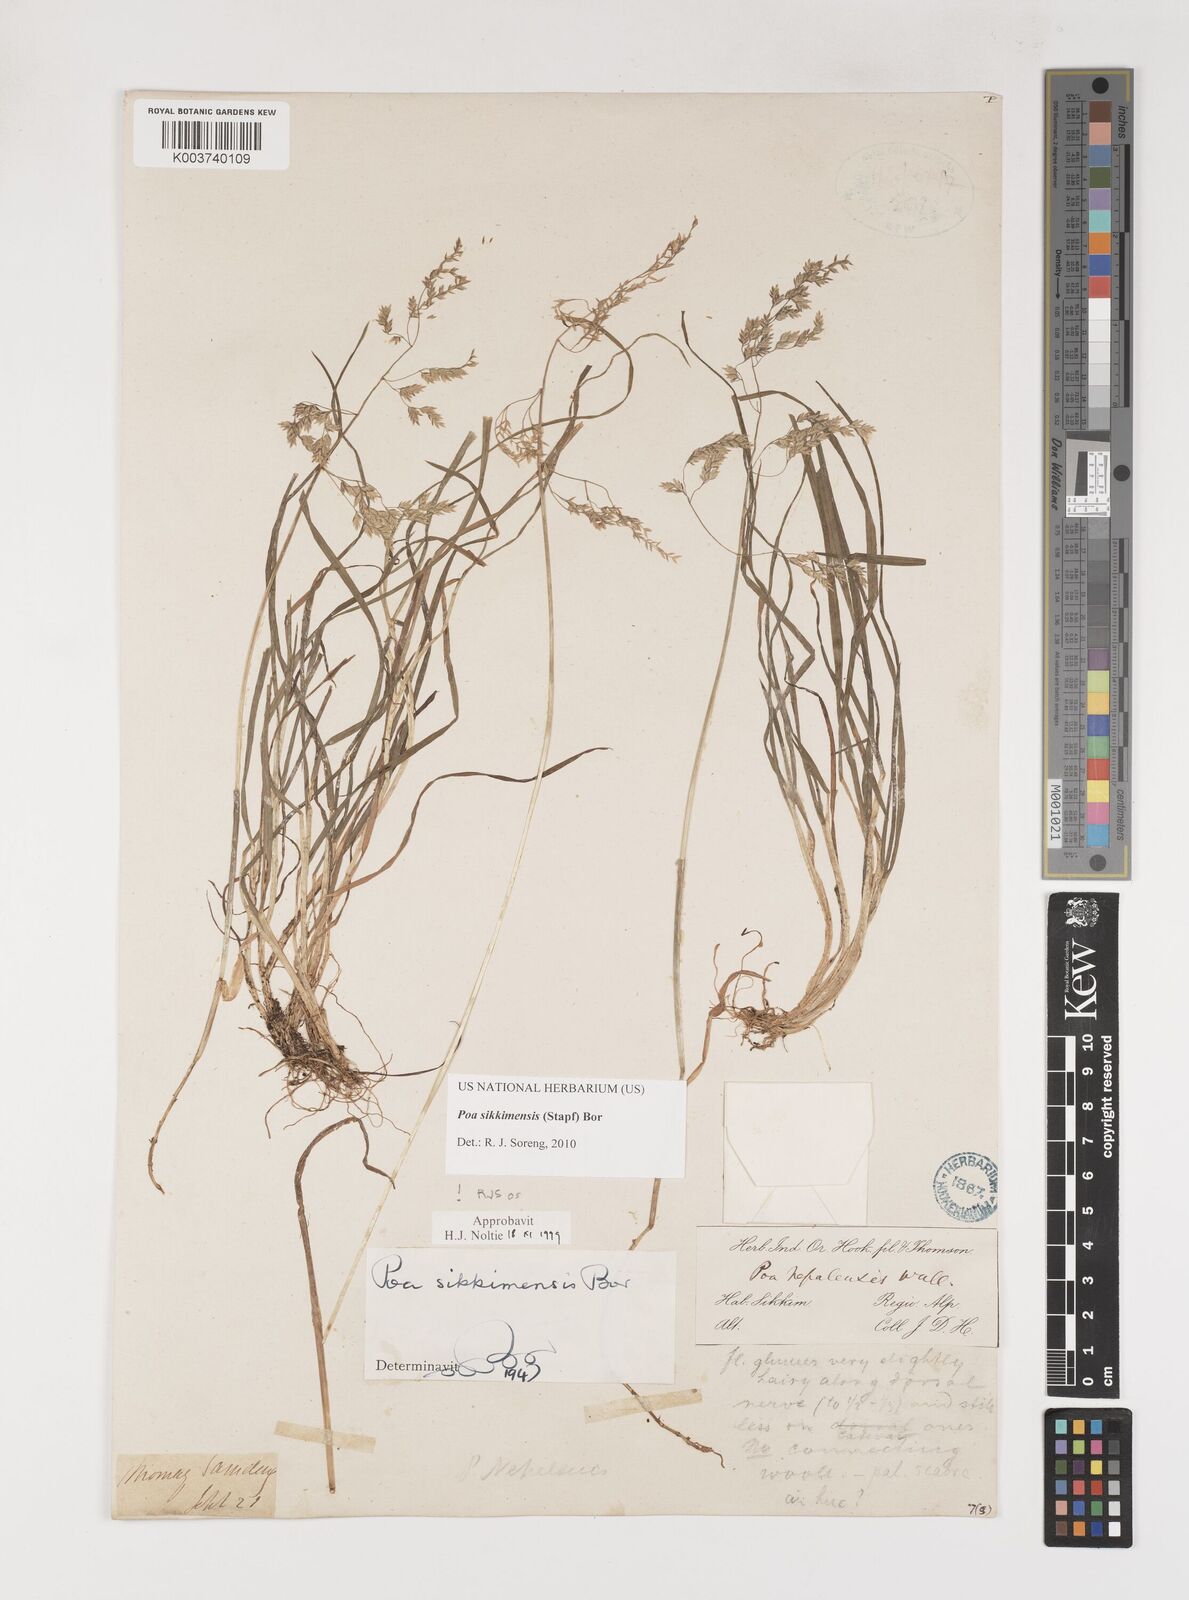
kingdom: Plantae
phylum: Tracheophyta
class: Liliopsida
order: Poales
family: Poaceae
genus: Poa
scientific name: Poa sikkimensis
